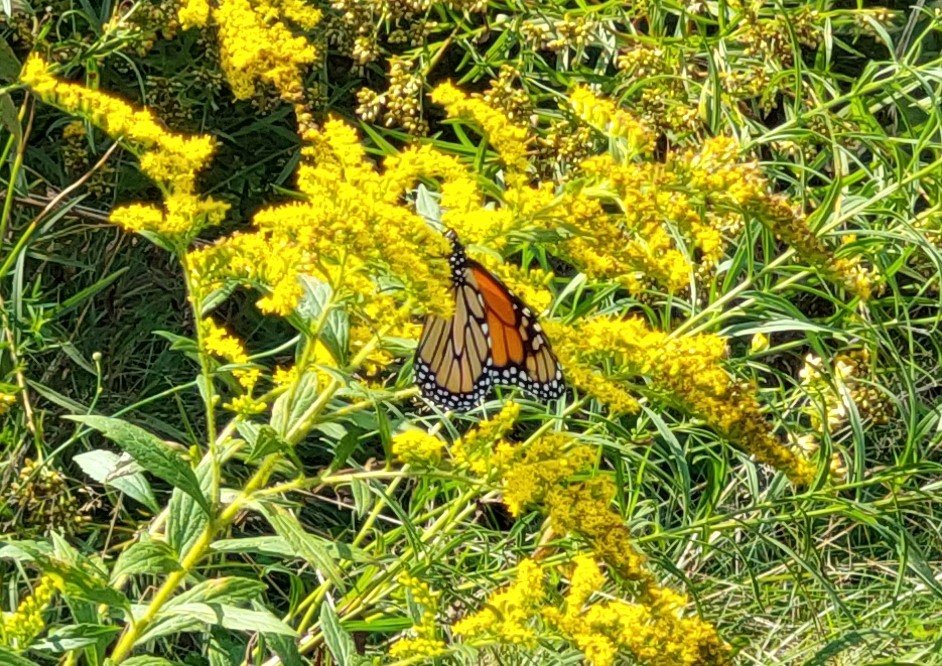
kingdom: Animalia
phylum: Arthropoda
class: Insecta
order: Lepidoptera
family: Nymphalidae
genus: Danaus
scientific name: Danaus plexippus
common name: Monarch
